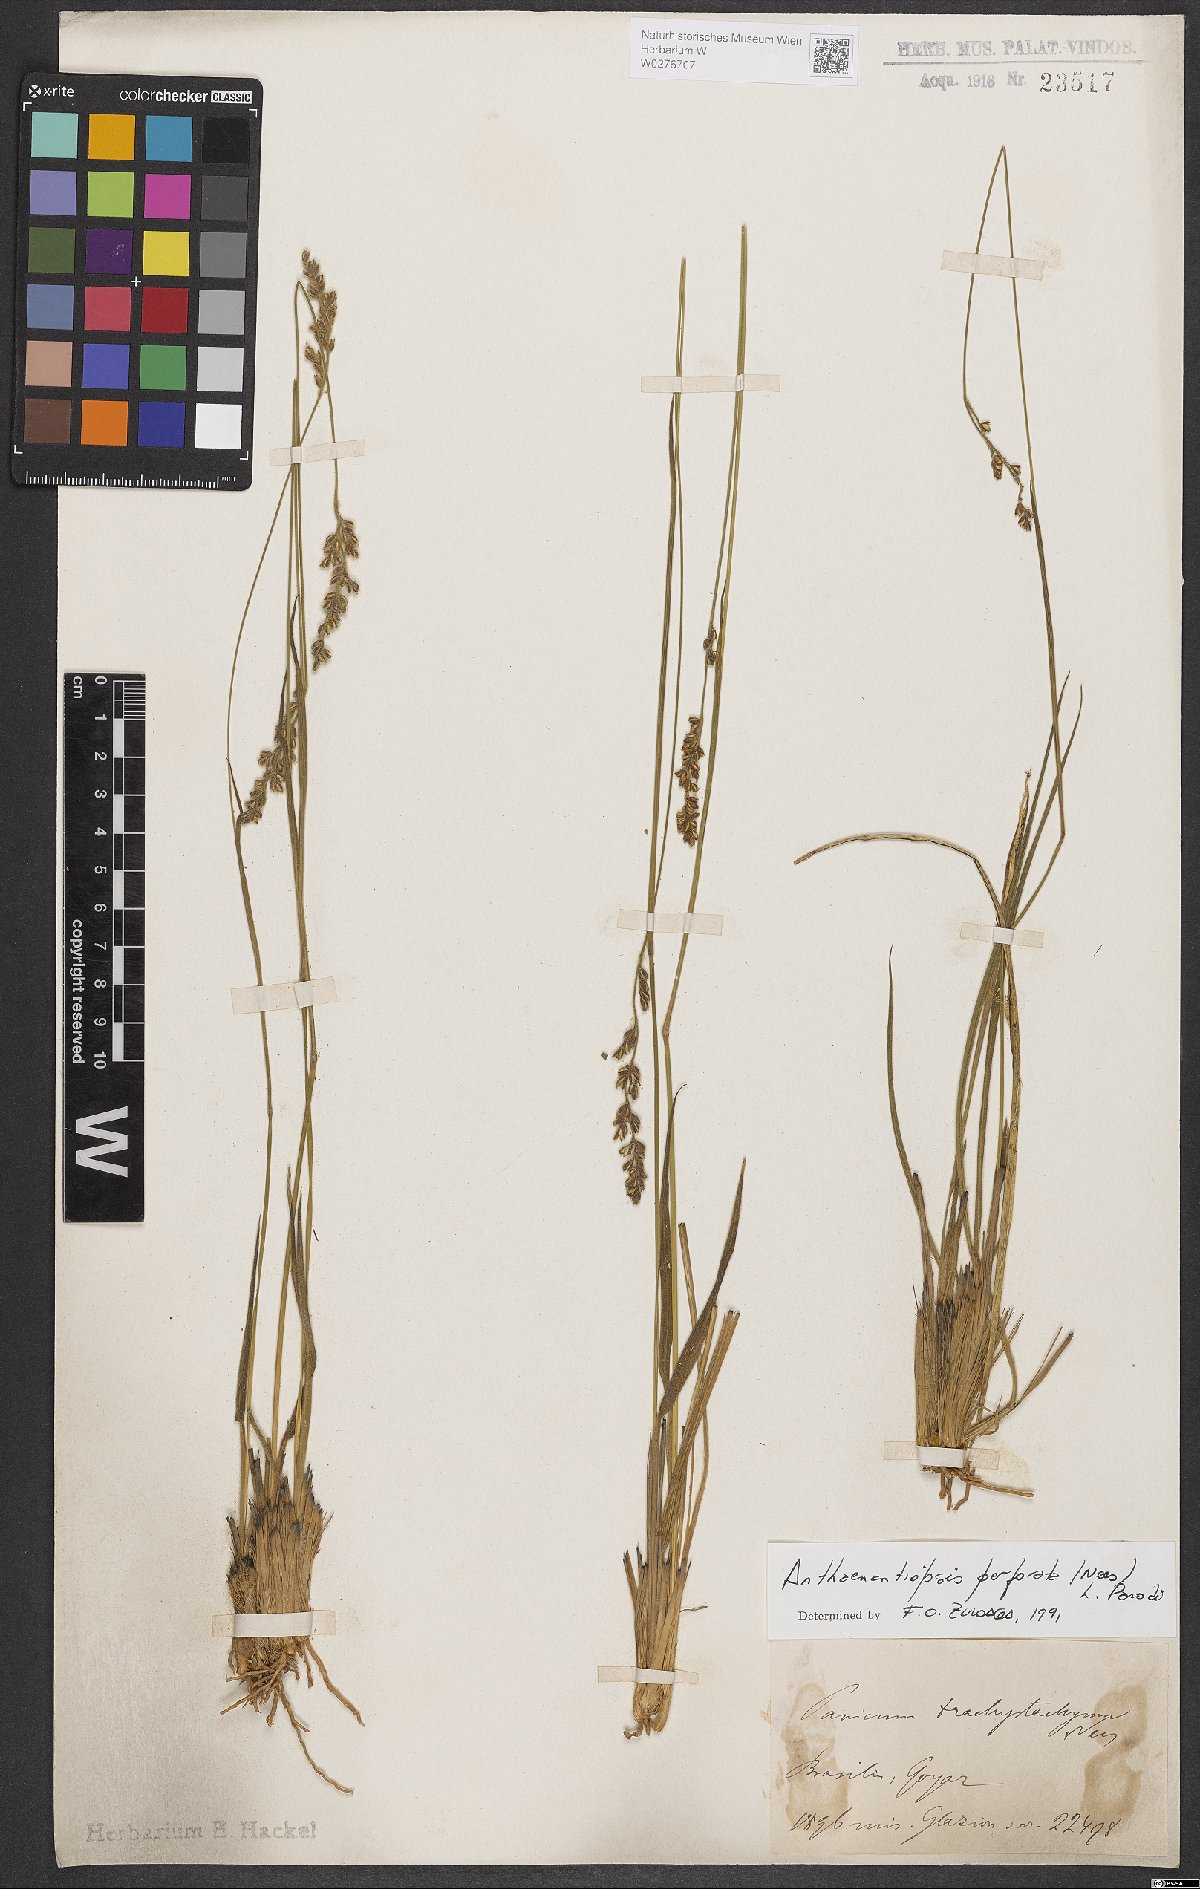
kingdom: Plantae
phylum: Tracheophyta
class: Liliopsida
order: Poales
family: Poaceae
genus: Anthaenantiopsis
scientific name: Anthaenantiopsis perforata
